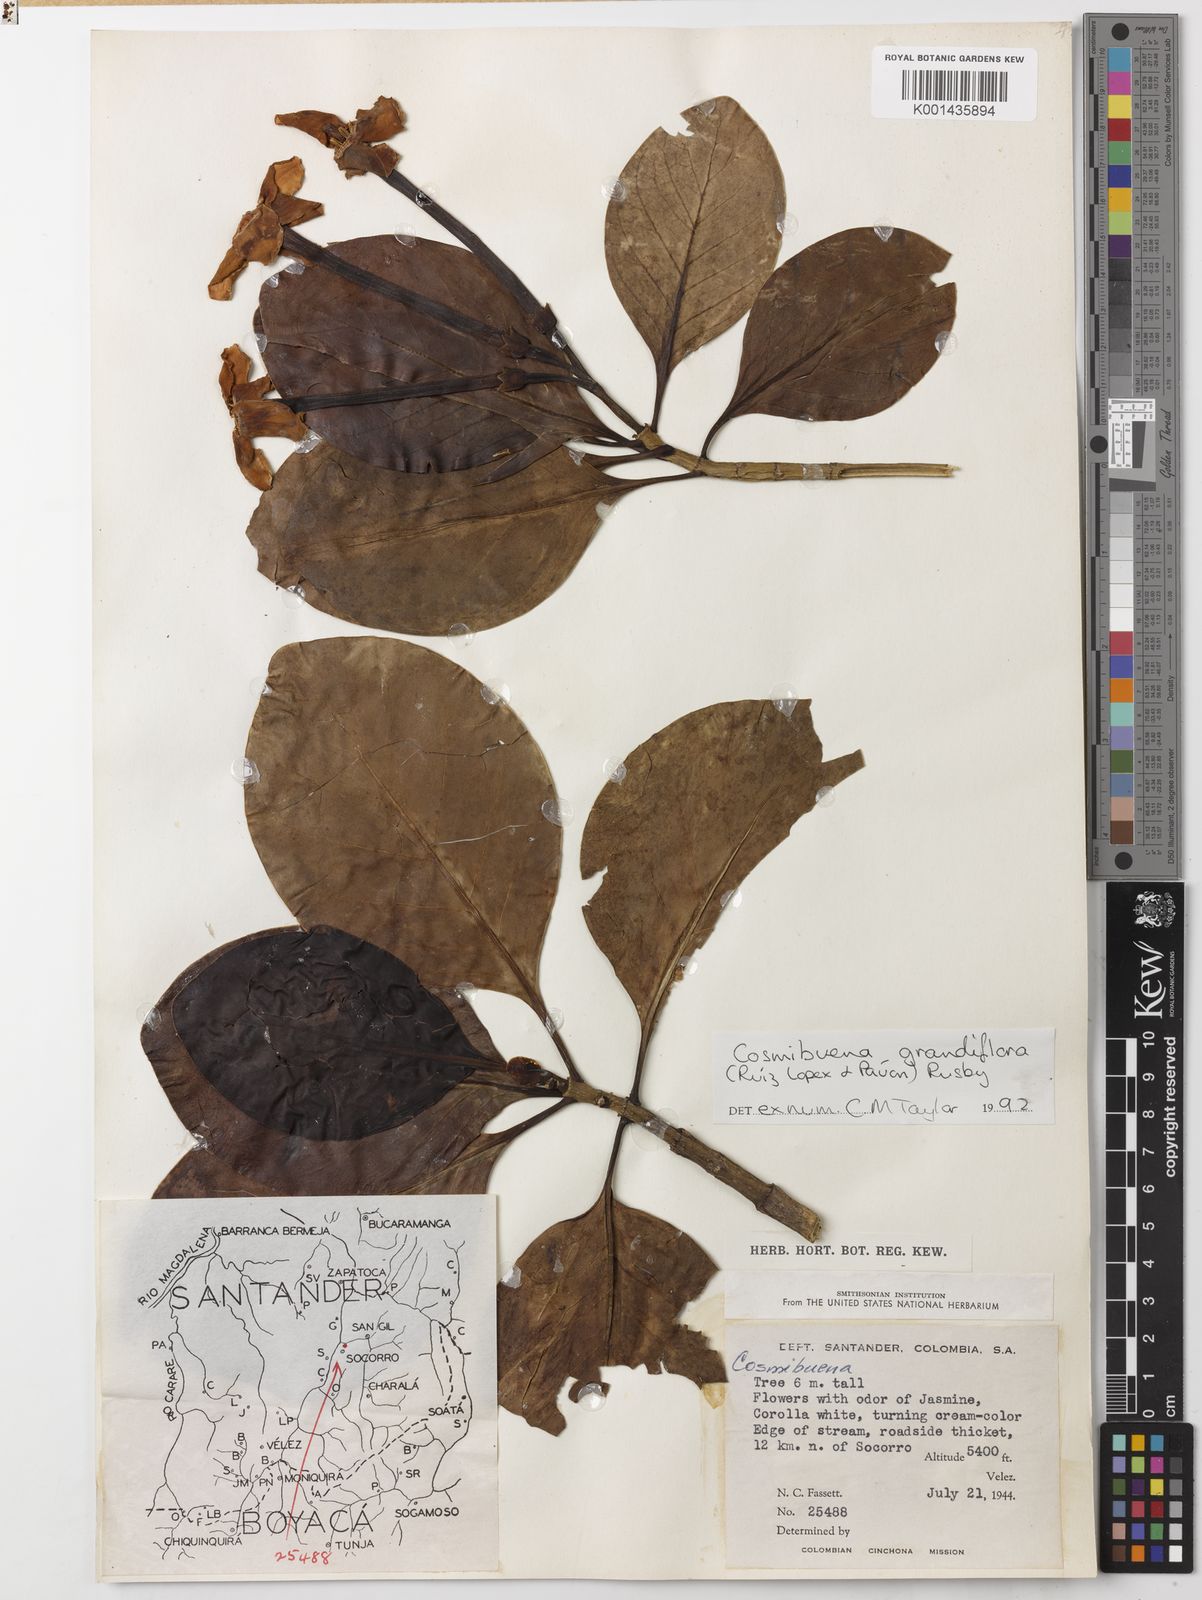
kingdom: Plantae
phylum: Tracheophyta
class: Magnoliopsida
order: Gentianales
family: Rubiaceae
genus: Cosmibuena
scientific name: Cosmibuena grandiflora
